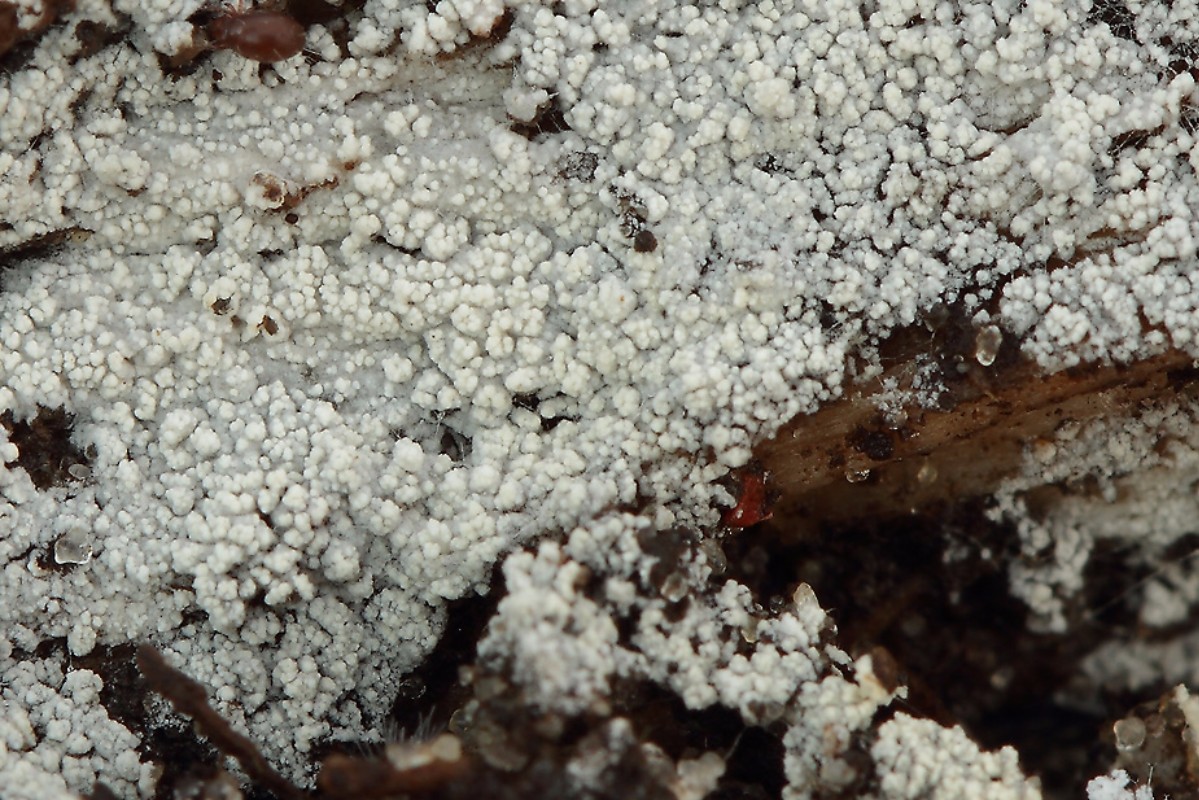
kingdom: Fungi
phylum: Basidiomycota
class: Agaricomycetes
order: Cantharellales
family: Hydnaceae
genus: Sistotrema
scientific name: Sistotrema brinkmannii
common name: bønnesporet kroneskorpe
